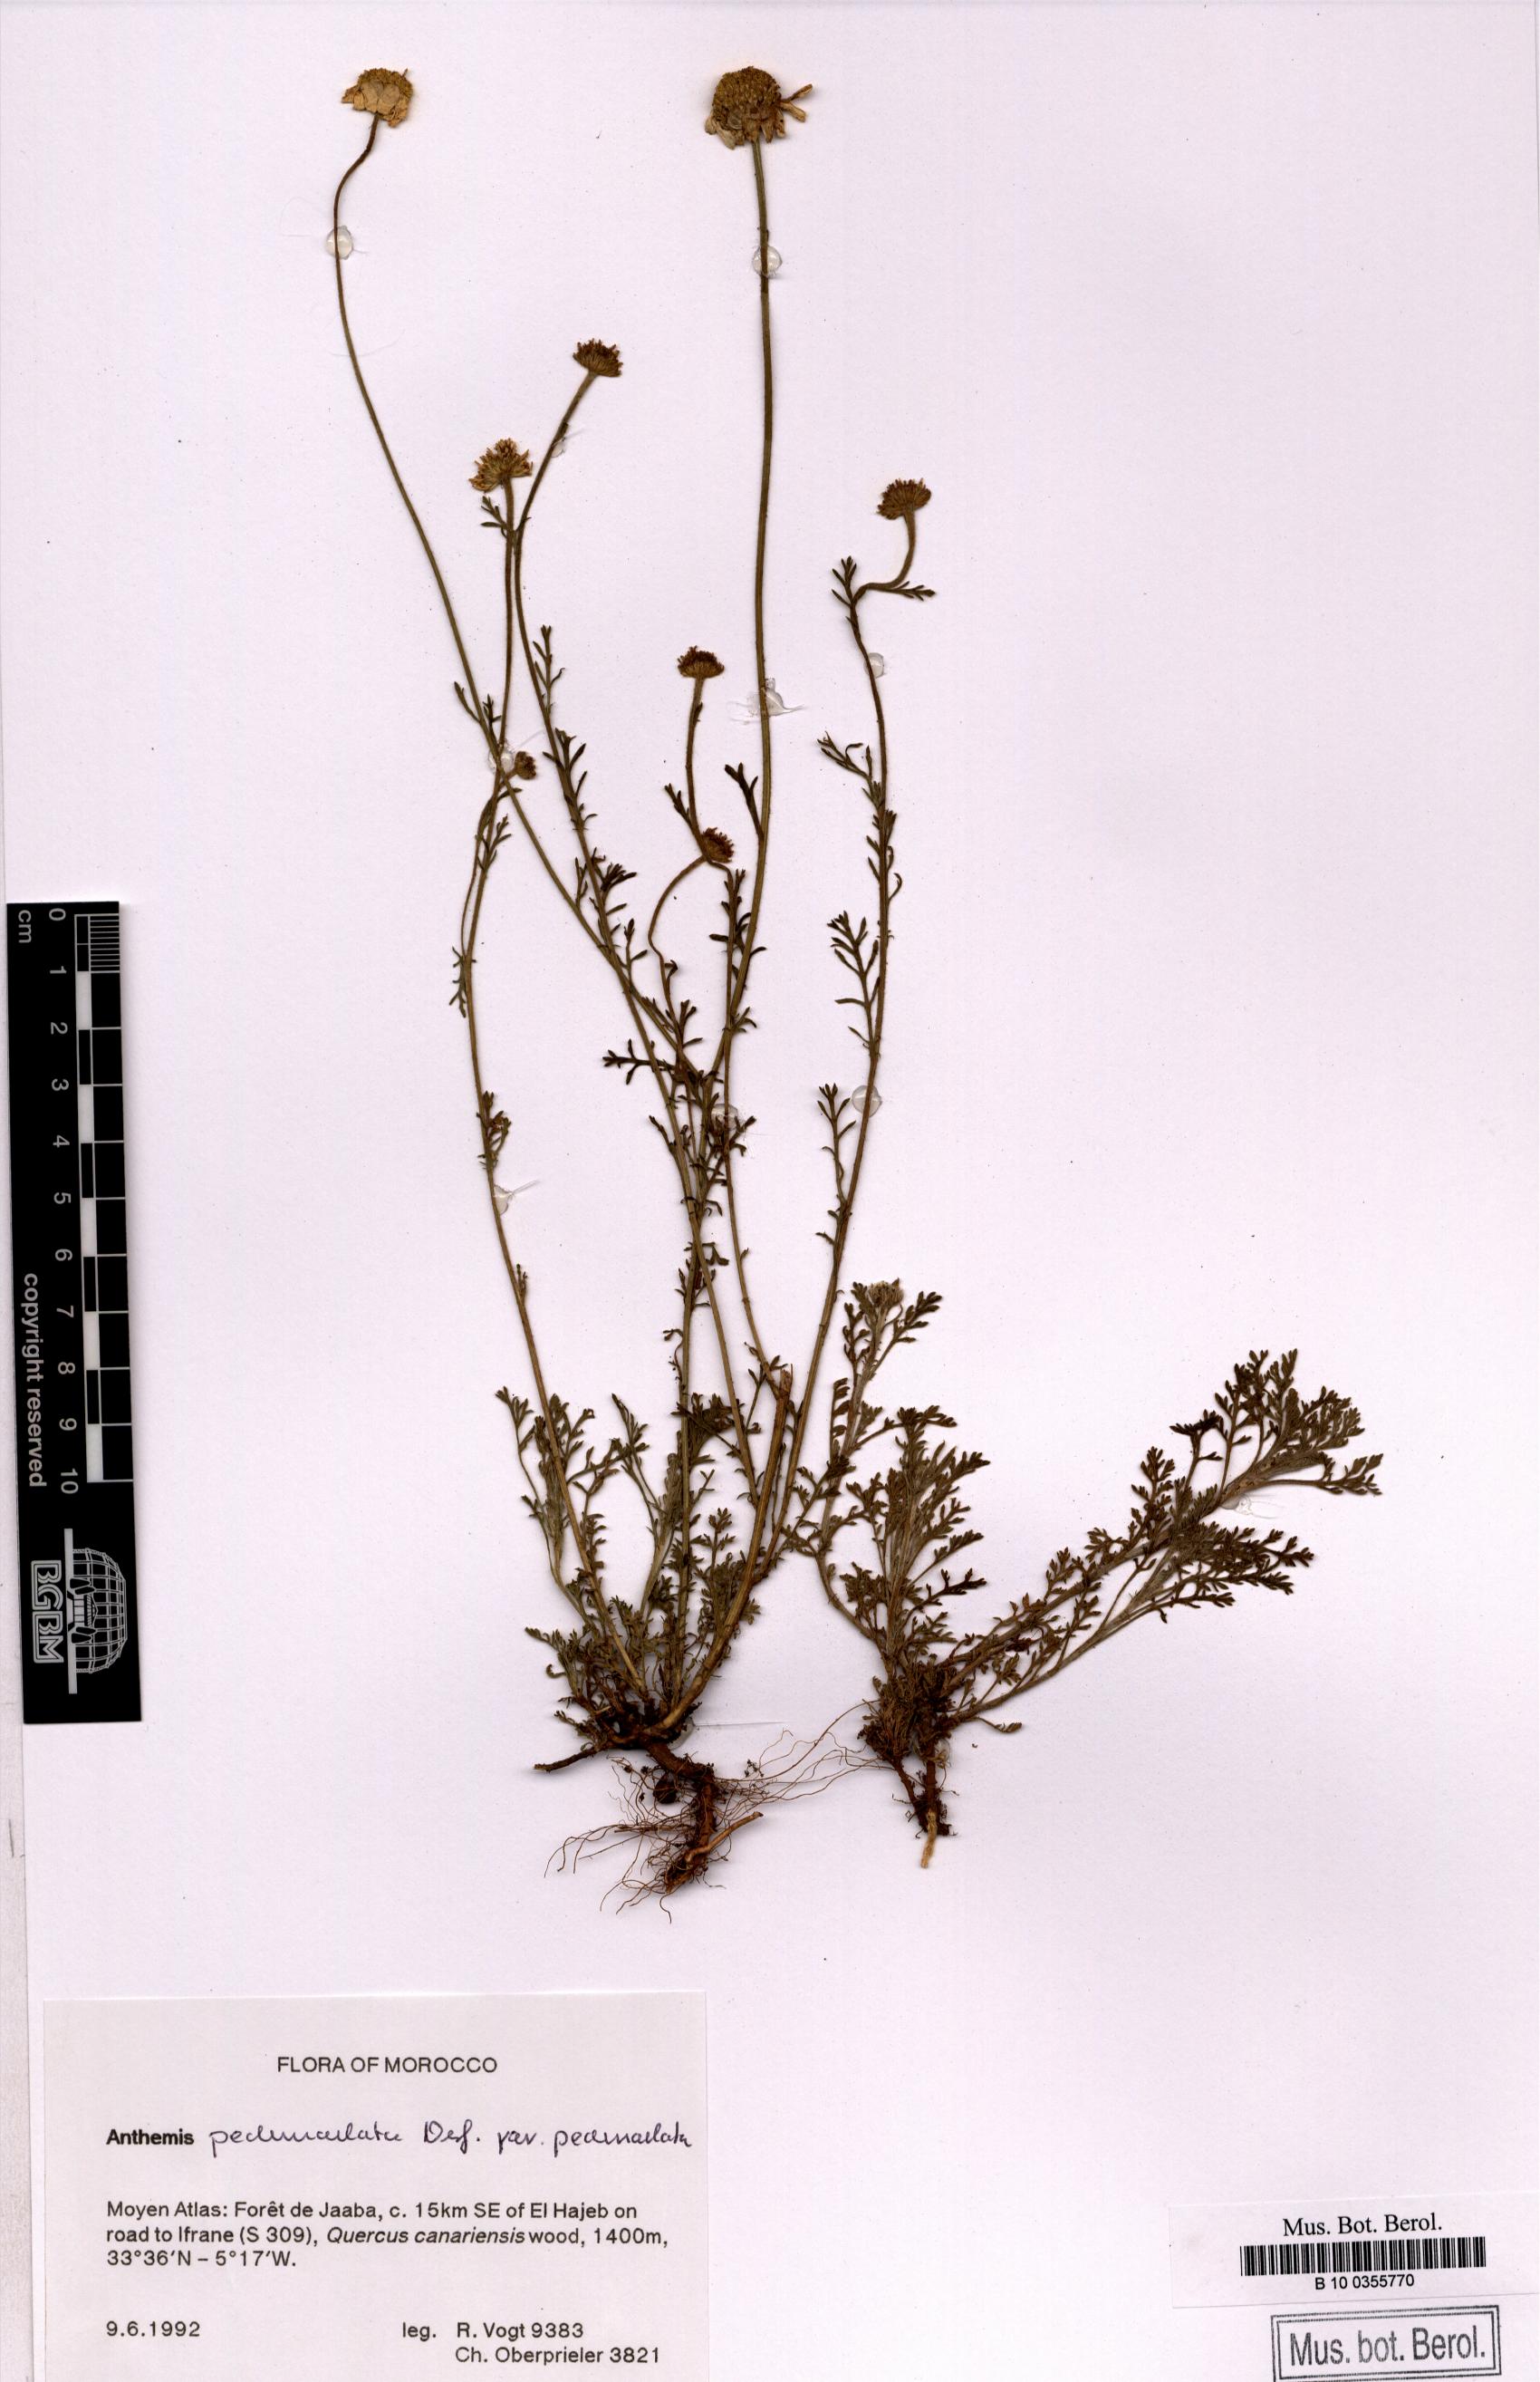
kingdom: Plantae
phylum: Tracheophyta
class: Magnoliopsida
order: Asterales
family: Asteraceae
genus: Anthemis
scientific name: Anthemis pedunculata
